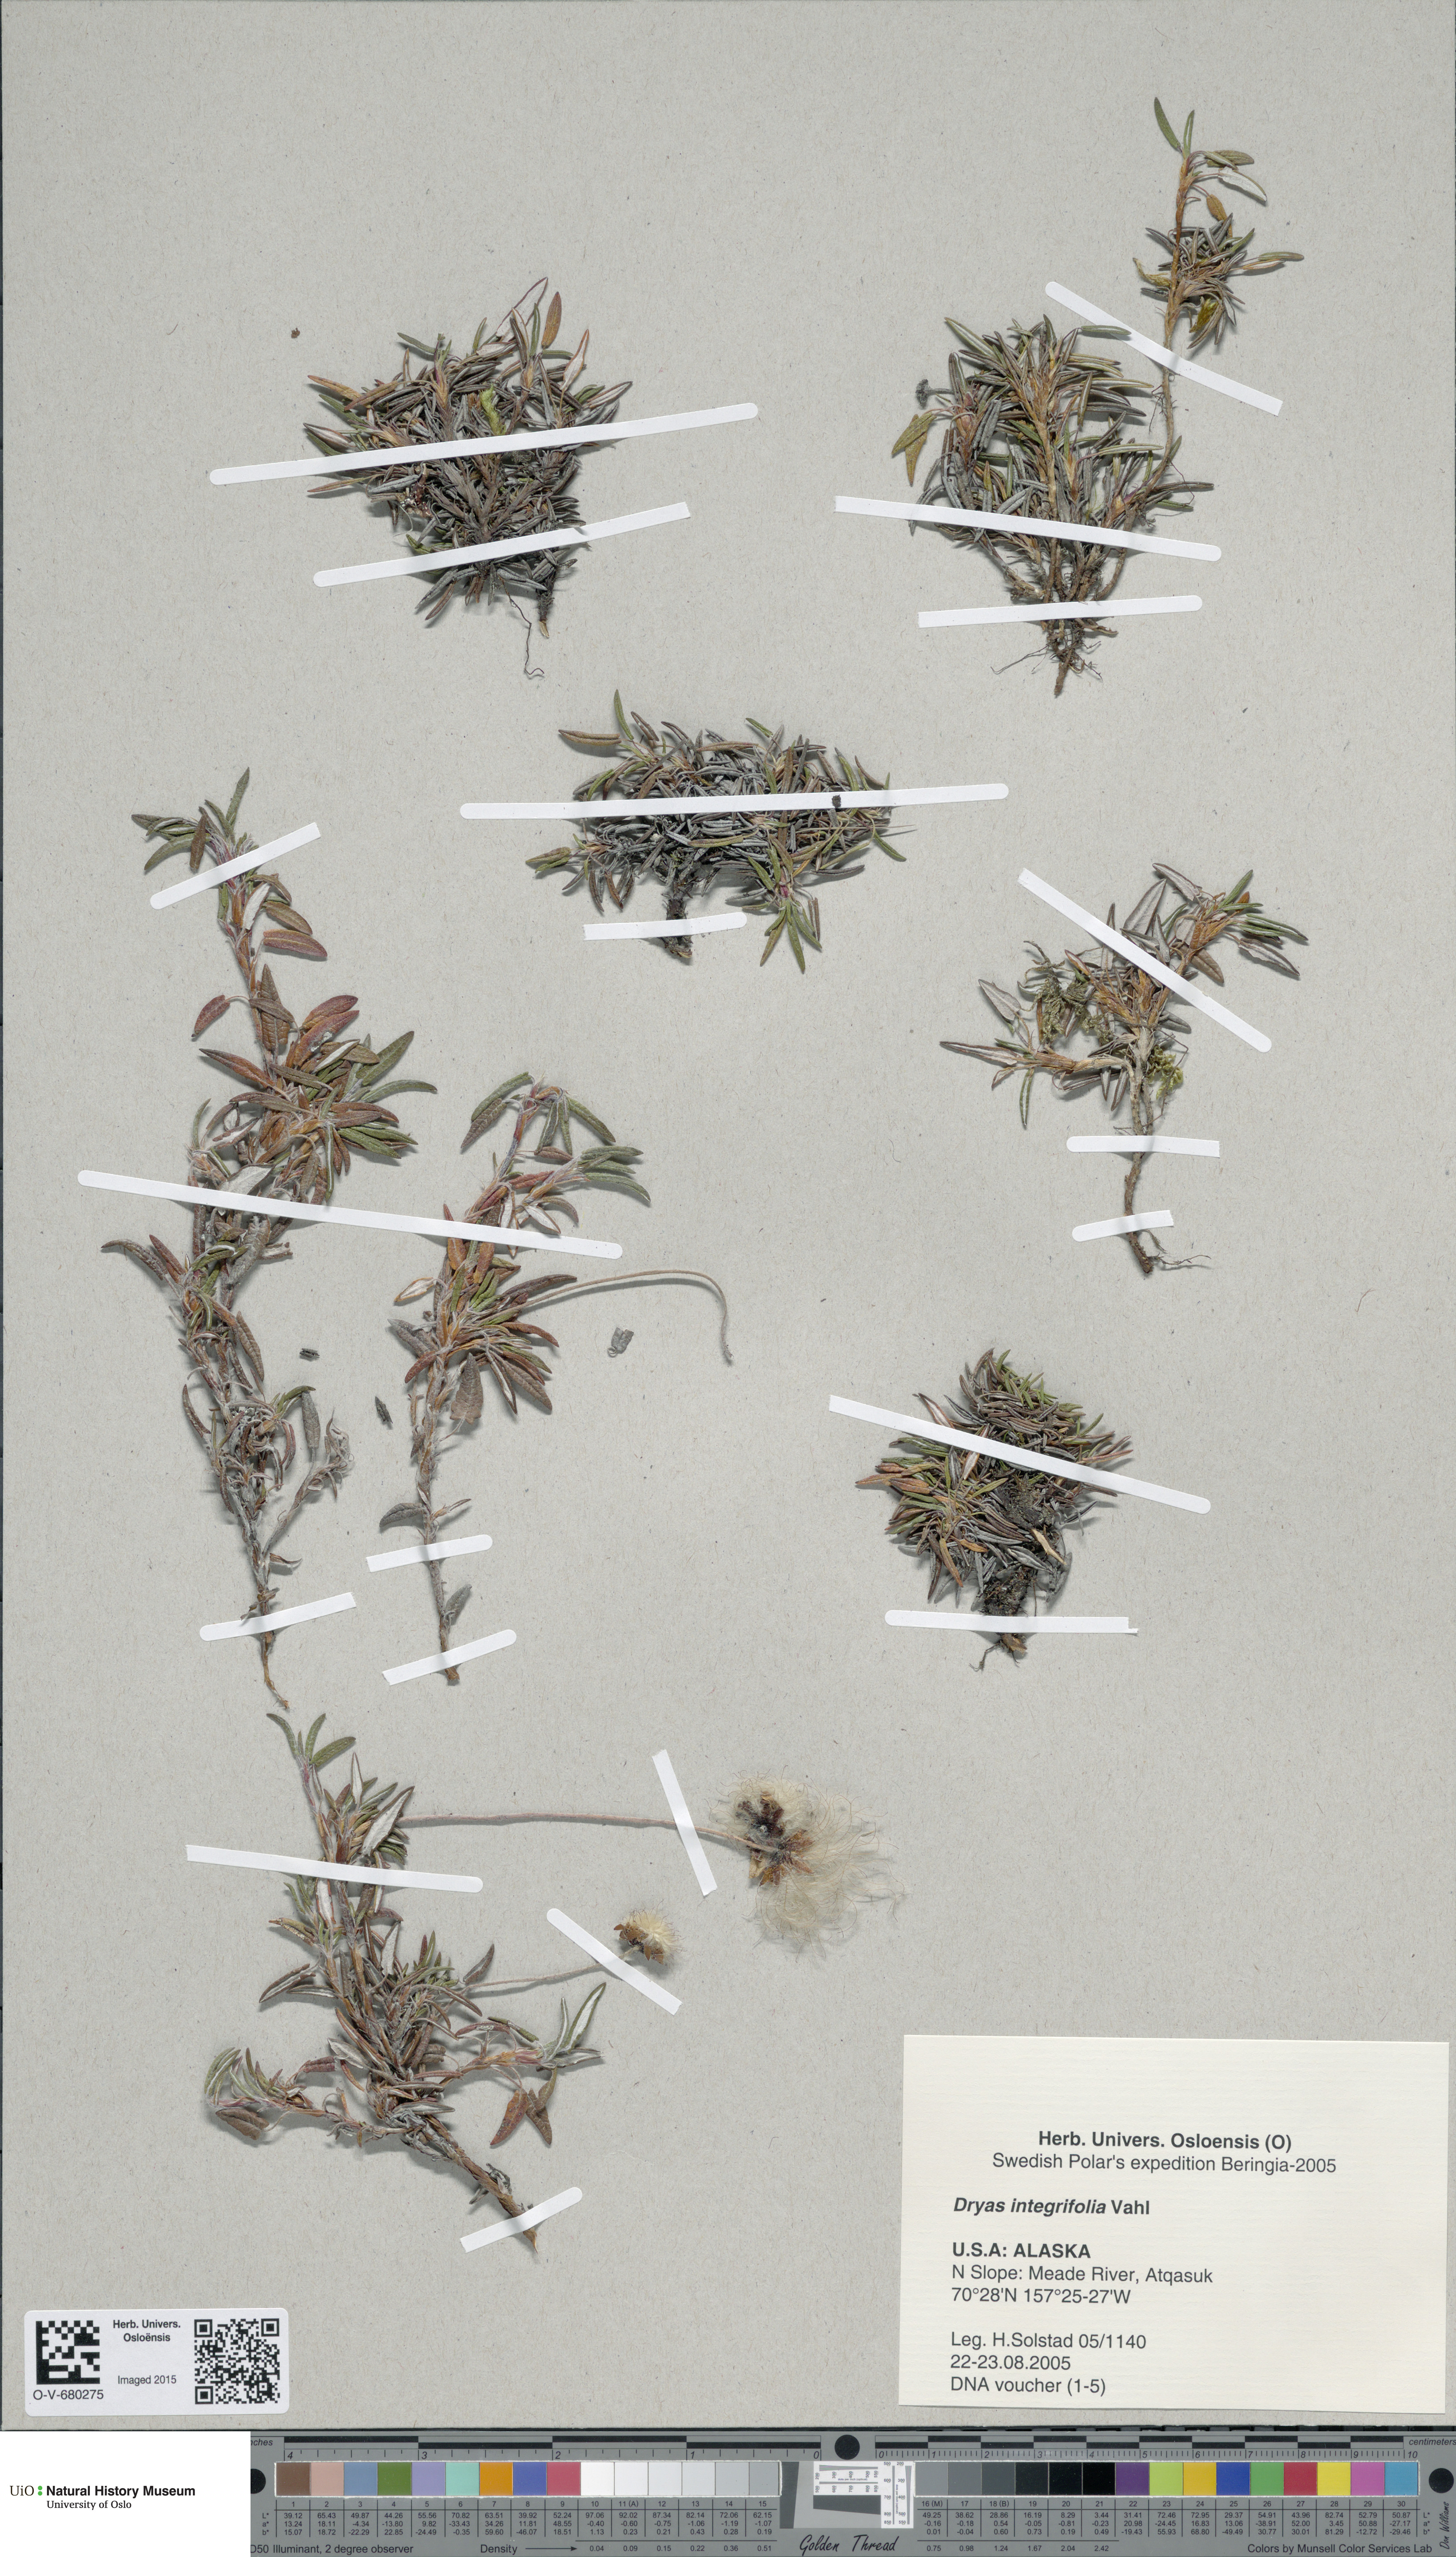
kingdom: Plantae
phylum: Tracheophyta
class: Magnoliopsida
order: Rosales
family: Rosaceae
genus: Dryas
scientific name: Dryas integrifolia
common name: Entire-leaved mountain avens
